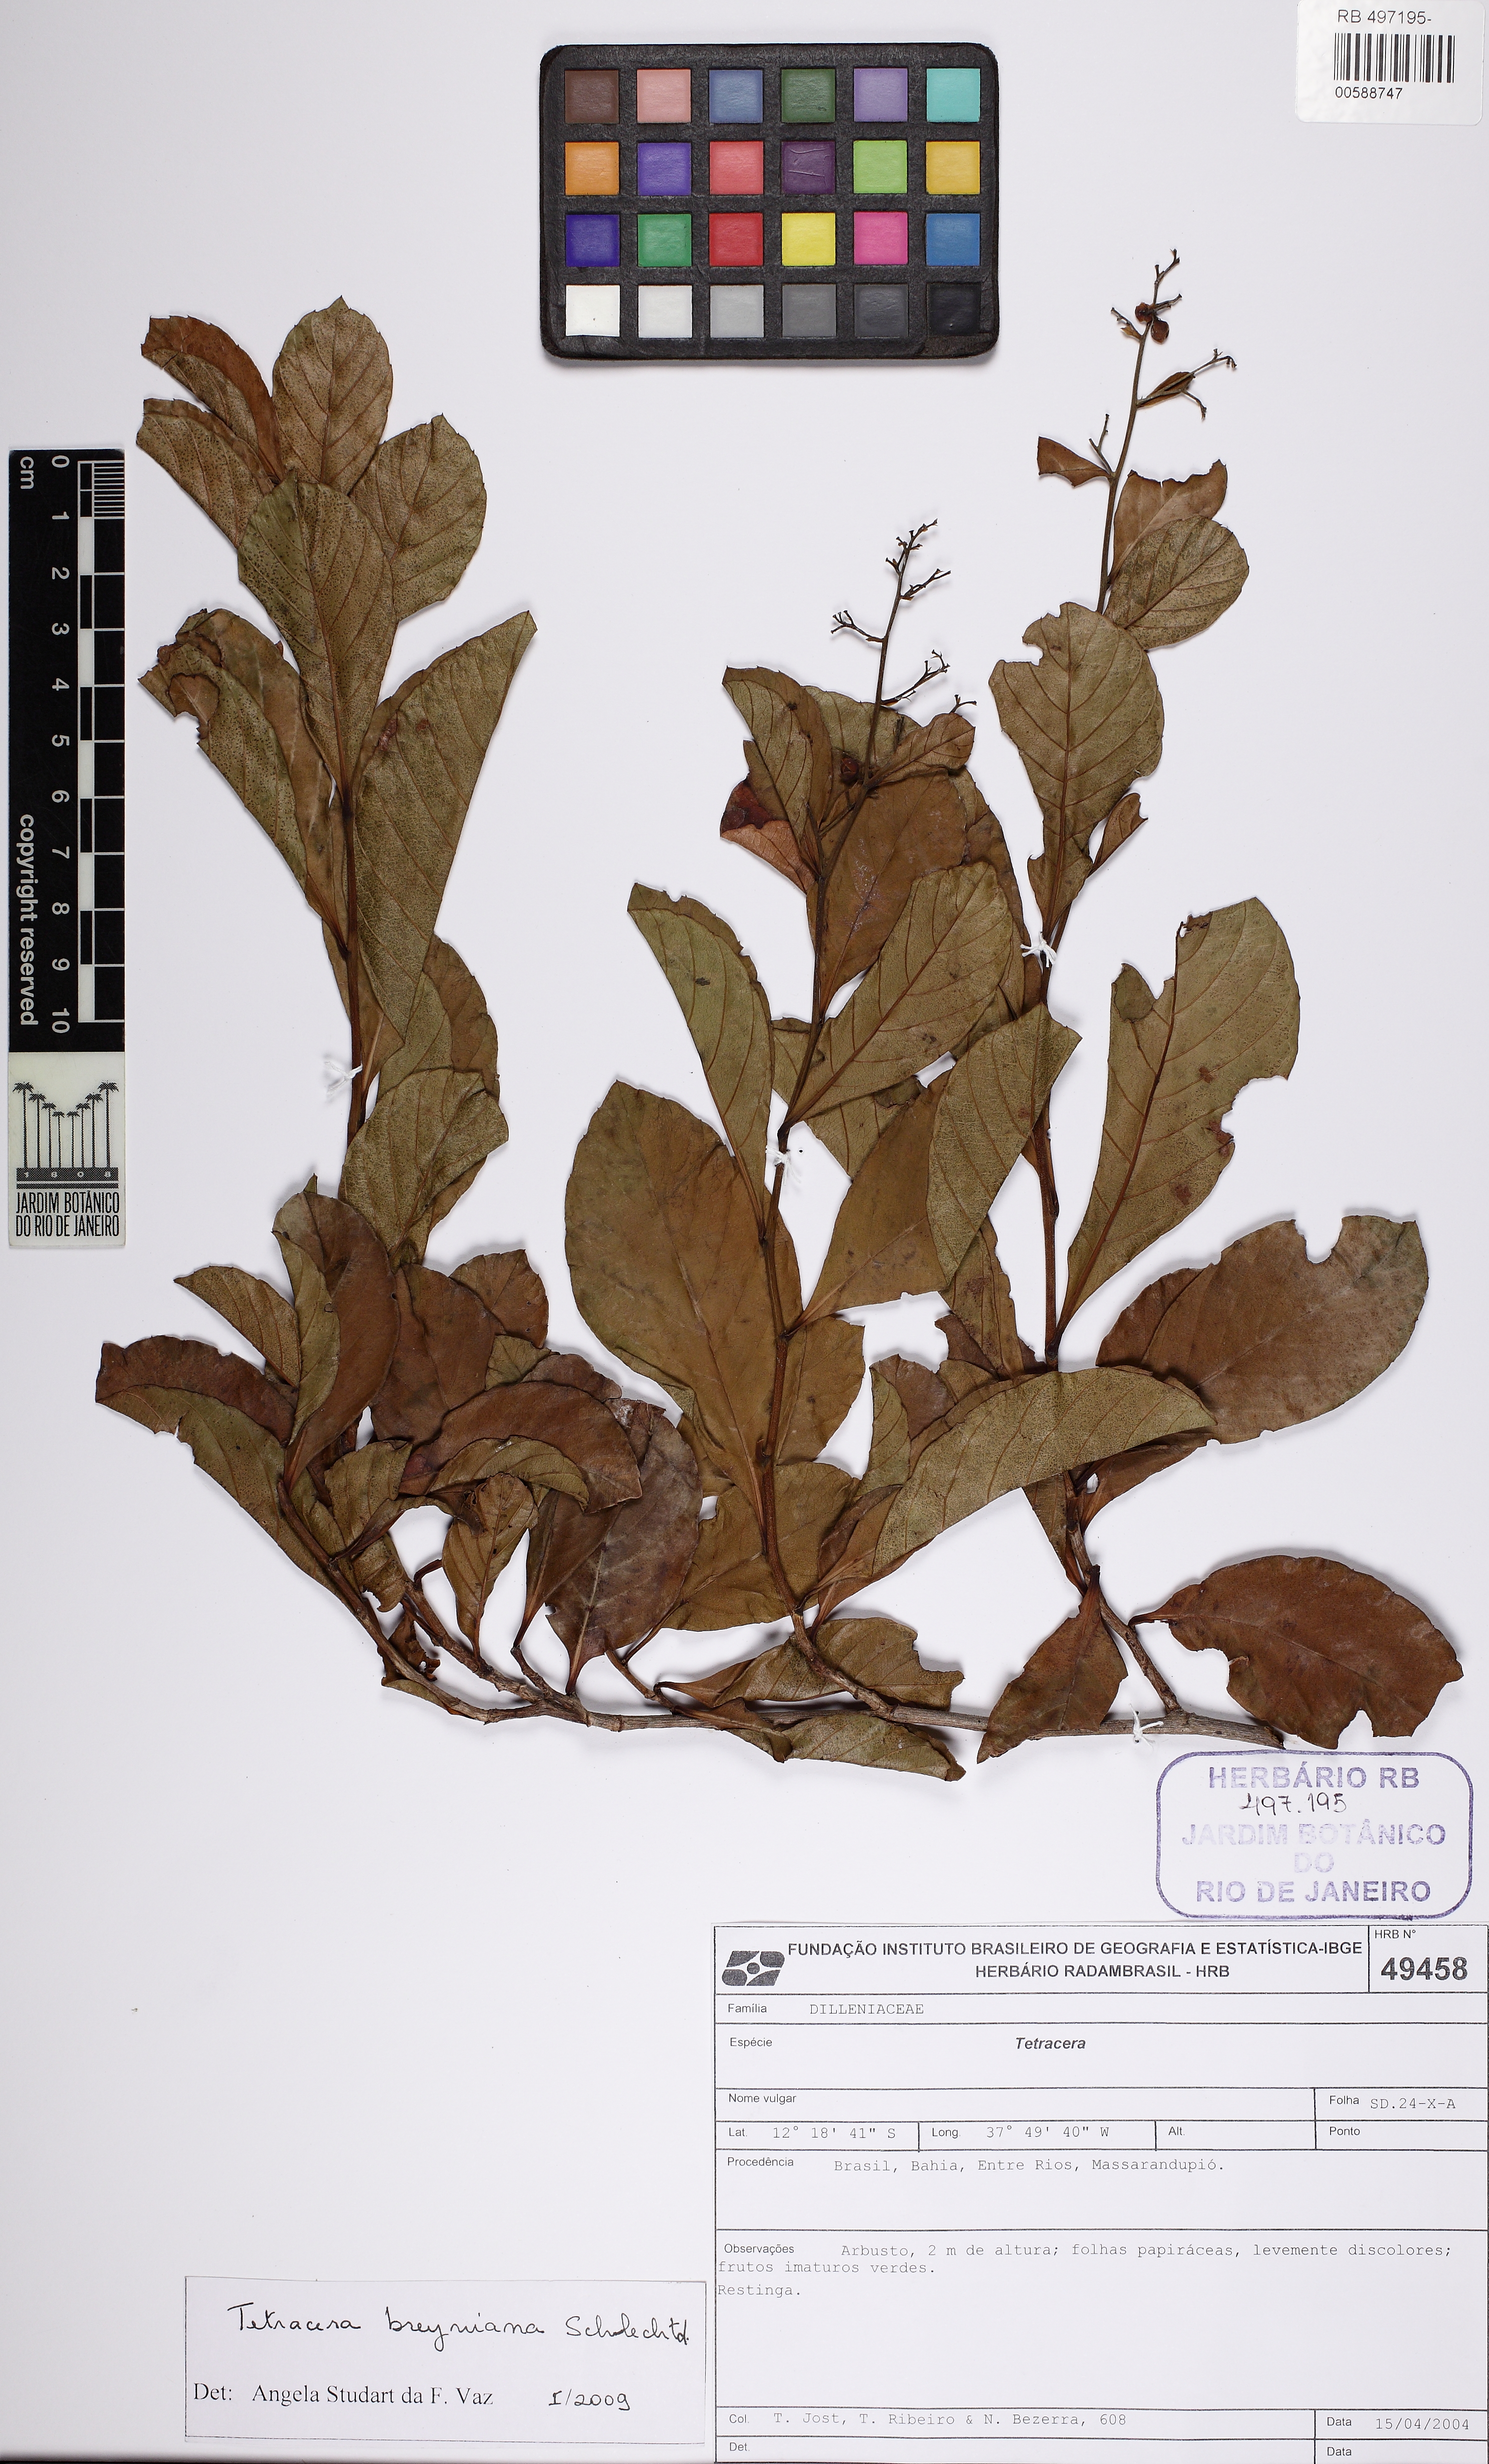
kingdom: Plantae
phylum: Tracheophyta
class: Magnoliopsida
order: Dilleniales
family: Dilleniaceae
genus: Tetracera
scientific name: Tetracera breyniana
